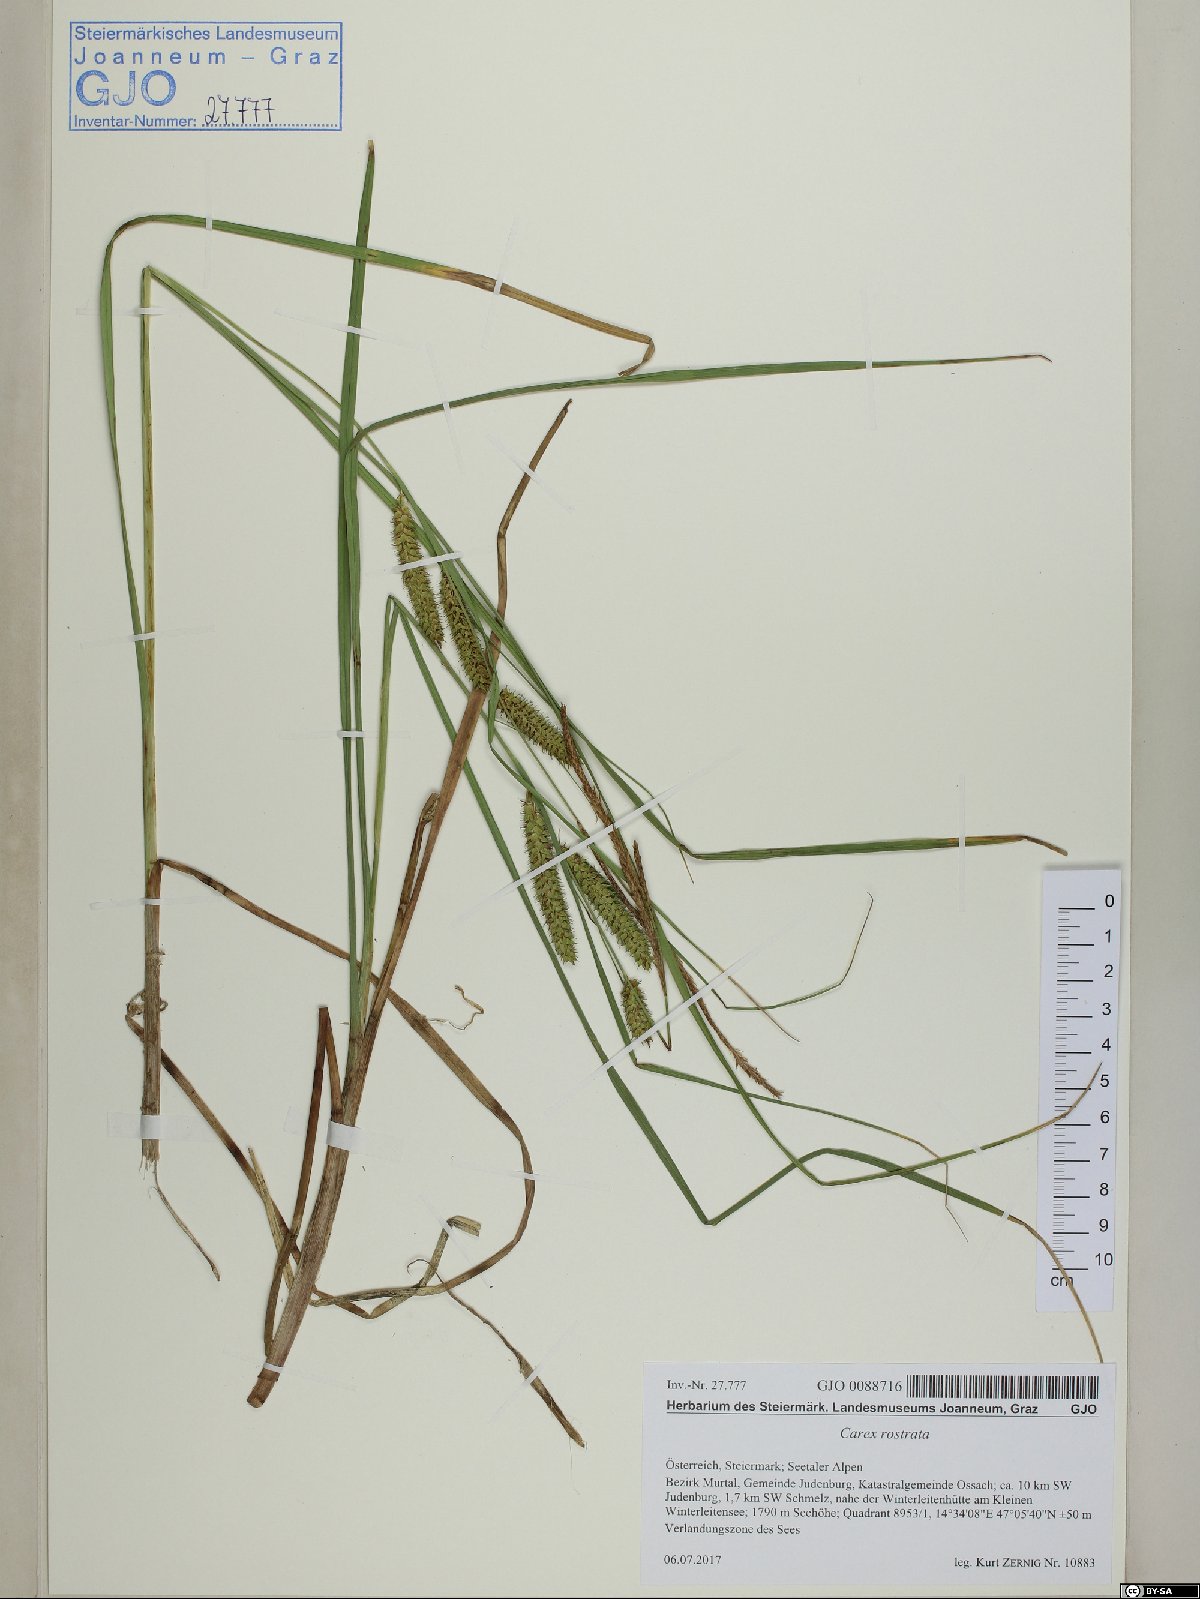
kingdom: Plantae
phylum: Tracheophyta
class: Liliopsida
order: Poales
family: Cyperaceae
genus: Carex
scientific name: Carex rostrata
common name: Bottle sedge
